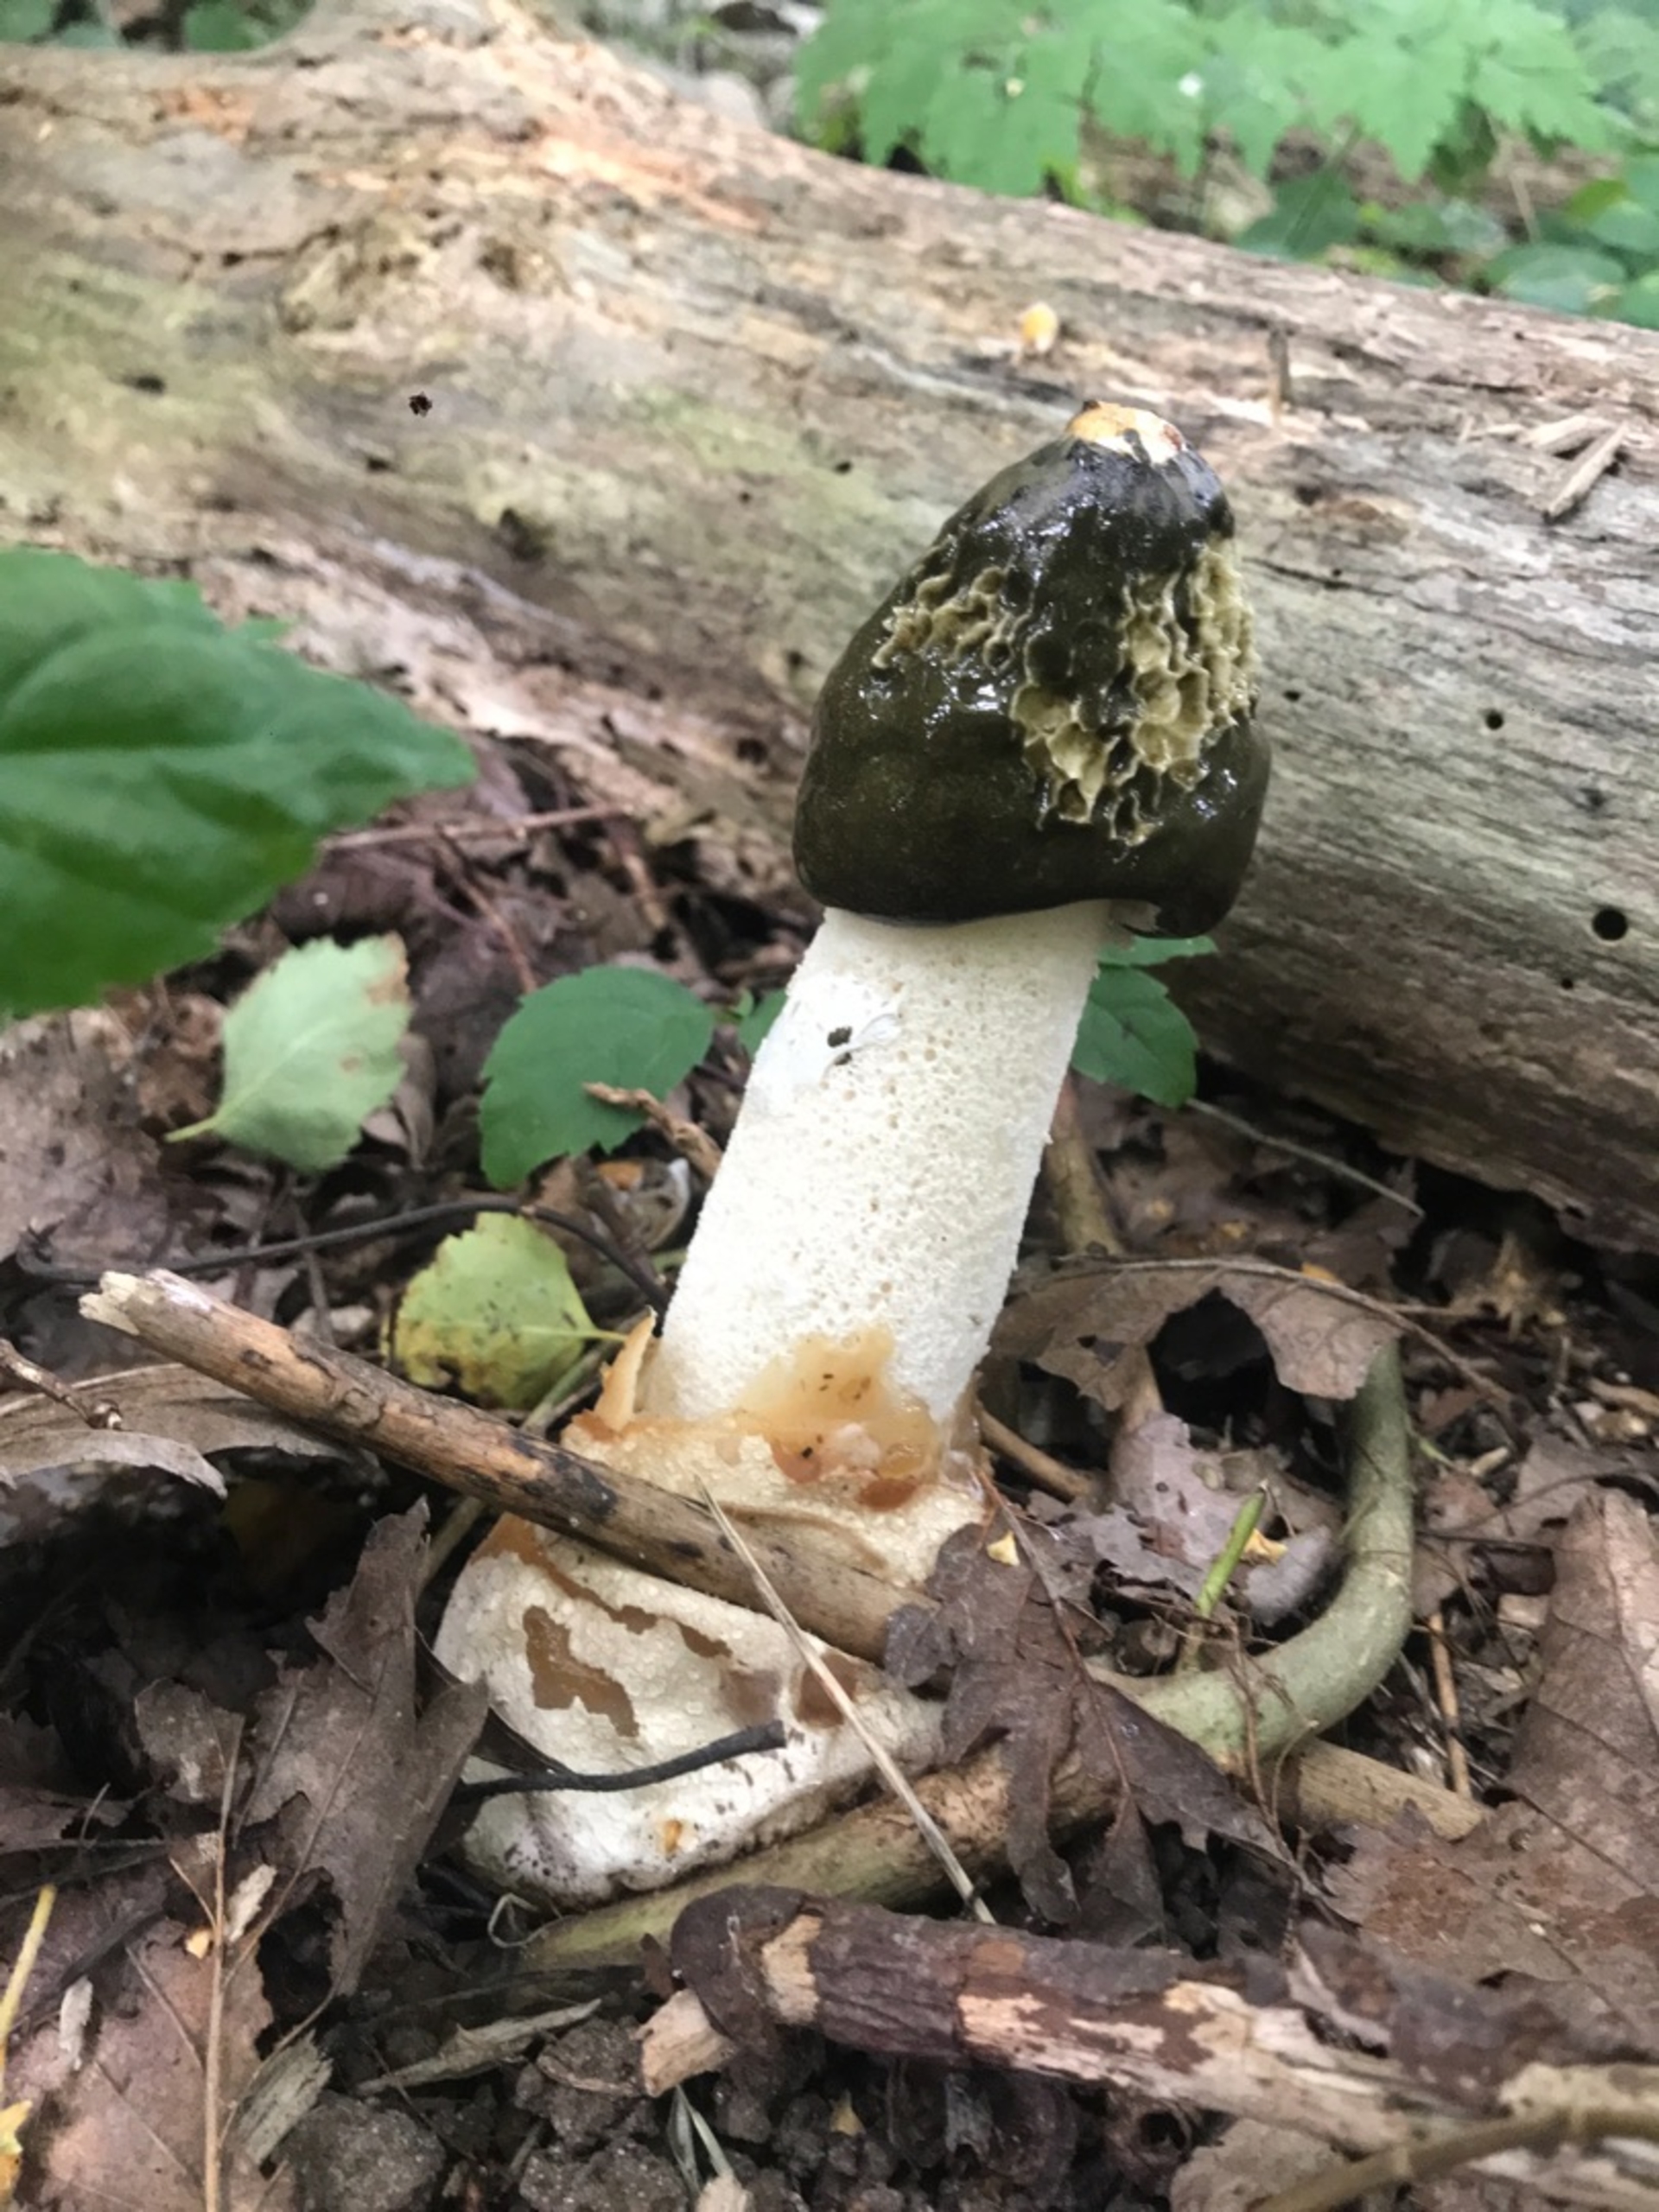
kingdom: Fungi
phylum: Basidiomycota
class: Agaricomycetes
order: Phallales
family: Phallaceae
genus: Phallus
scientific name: Phallus impudicus
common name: Almindelig stinksvamp
